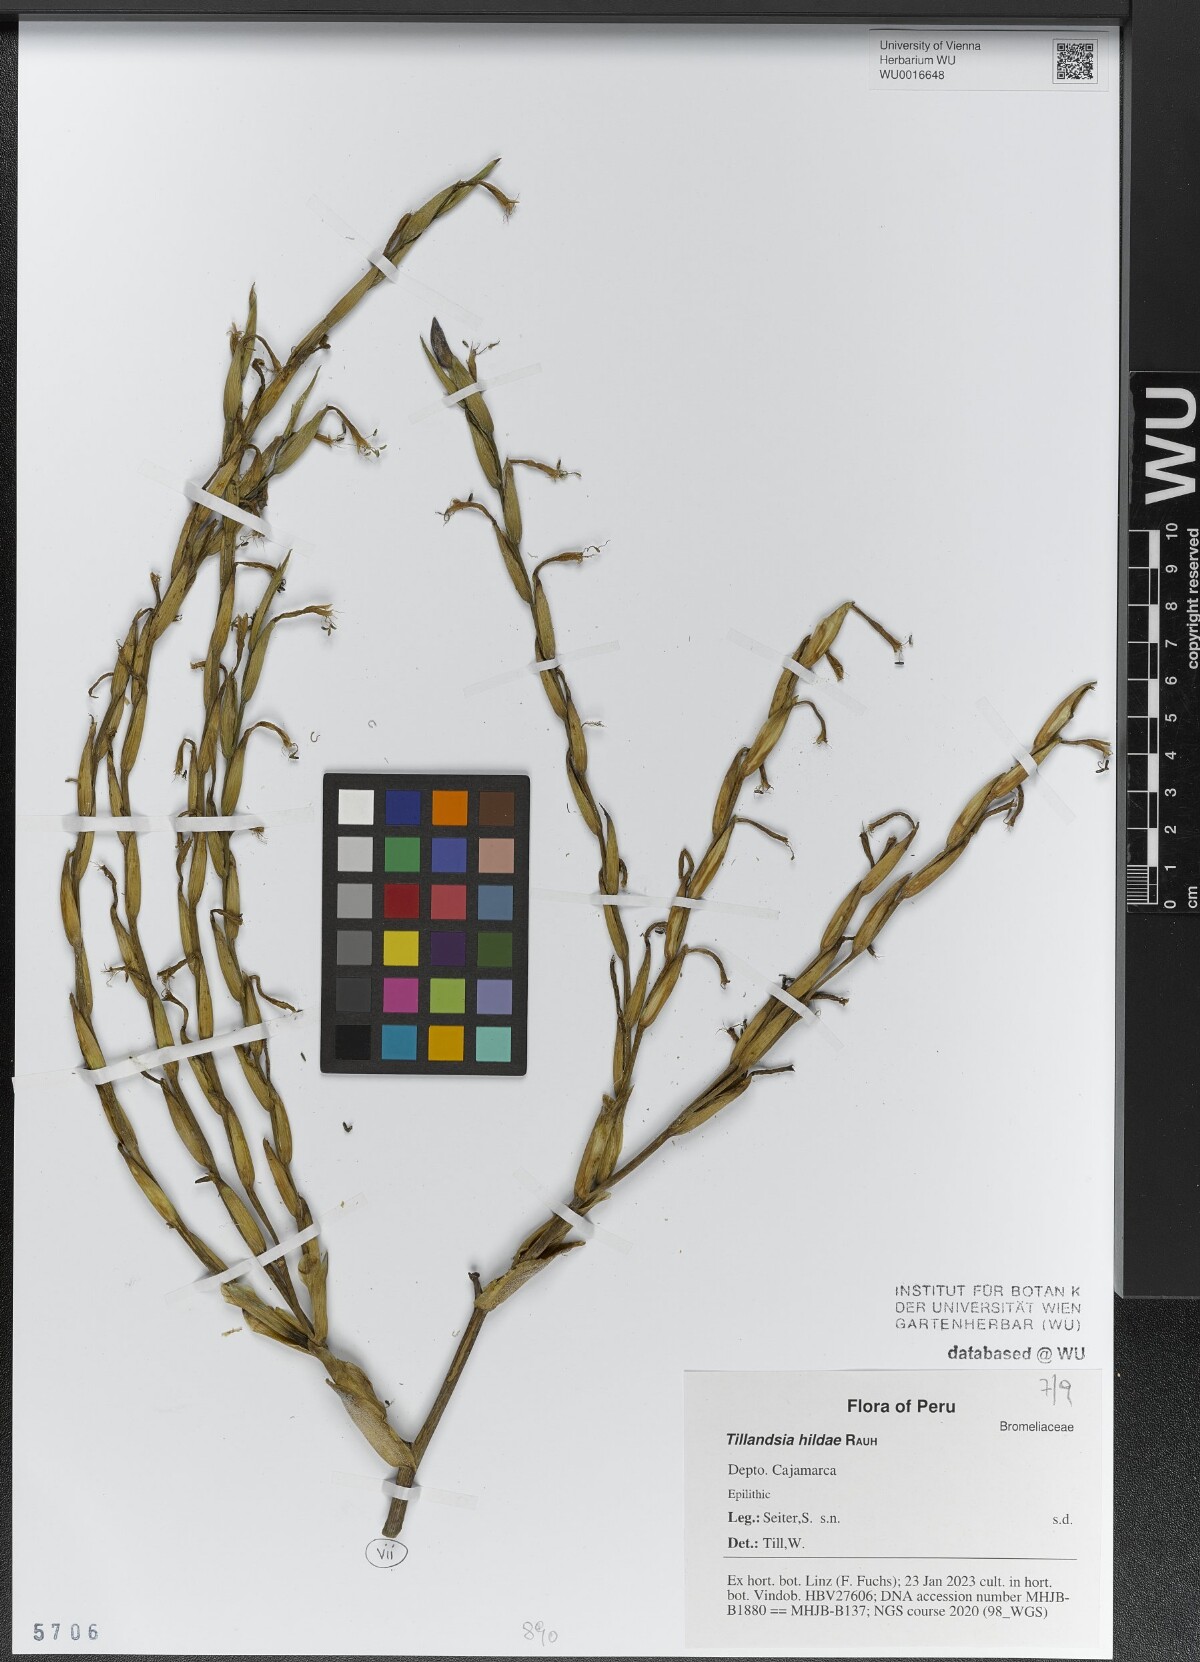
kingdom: Plantae
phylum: Tracheophyta
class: Liliopsida
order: Poales
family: Bromeliaceae
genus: Tillandsia
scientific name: Tillandsia hildae
